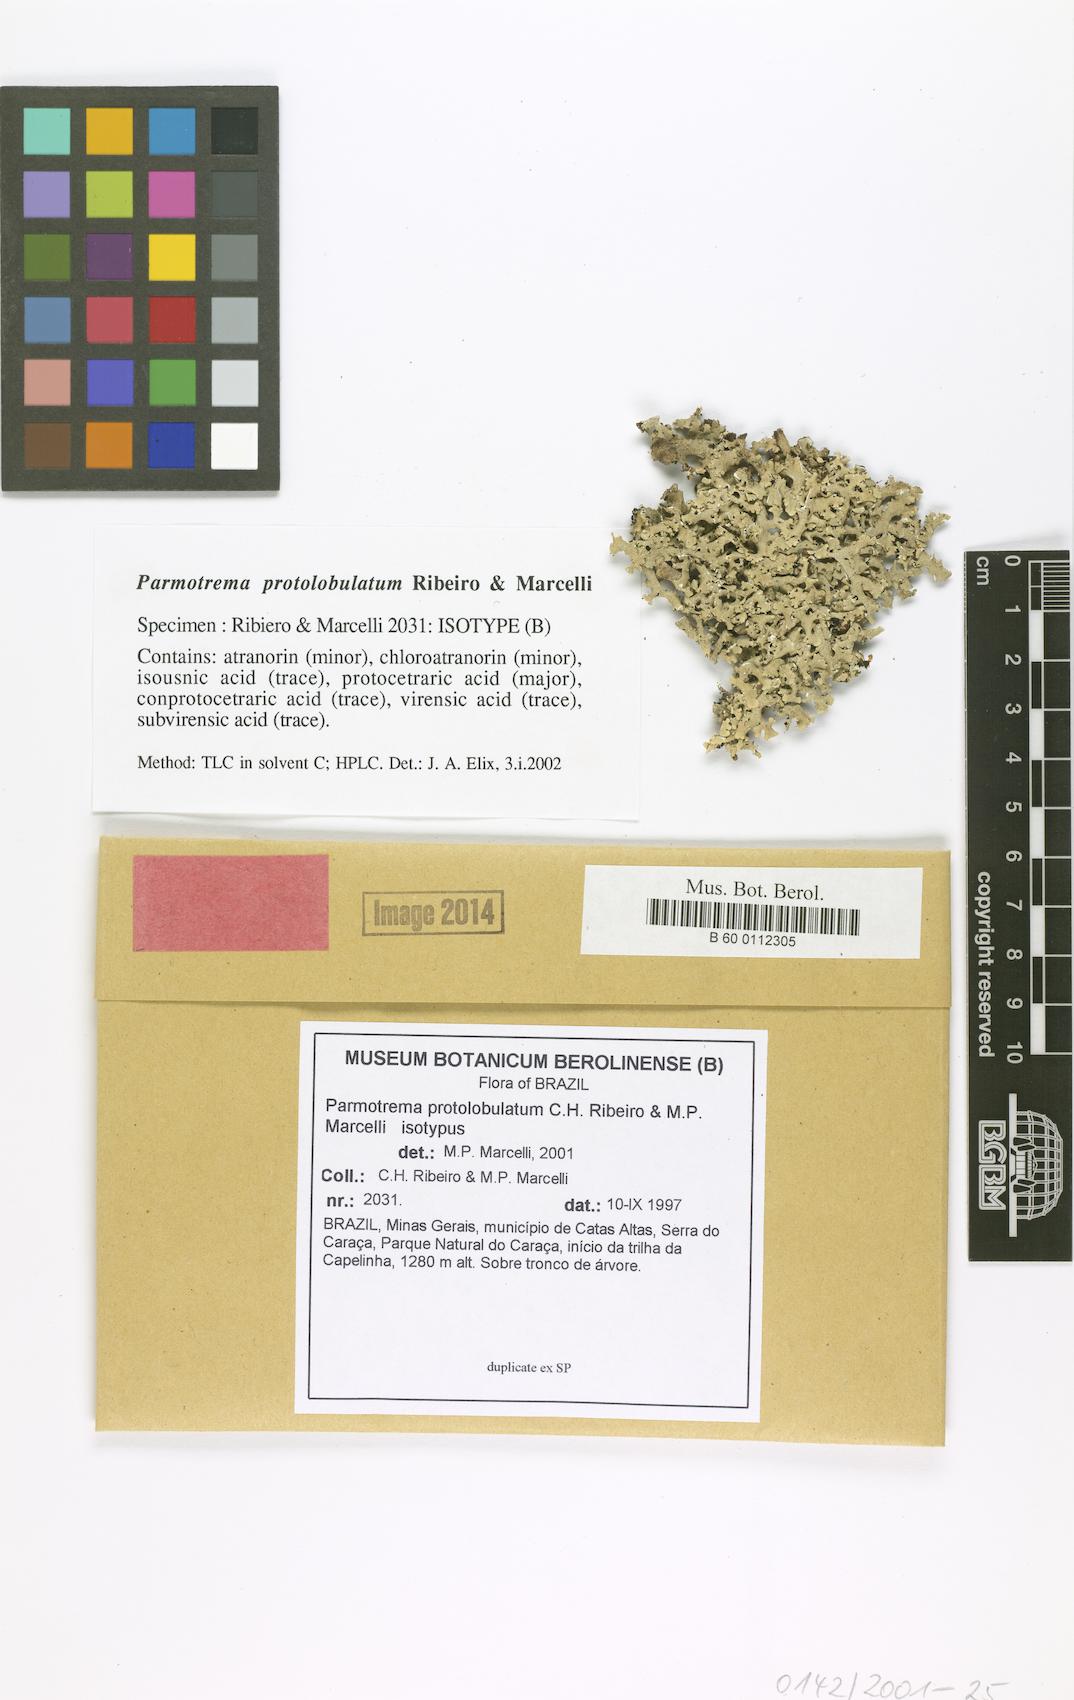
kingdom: Fungi
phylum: Ascomycota
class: Lecanoromycetes
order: Lecanorales
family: Parmeliaceae
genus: Parmotrema
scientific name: Parmotrema protolobulatum
